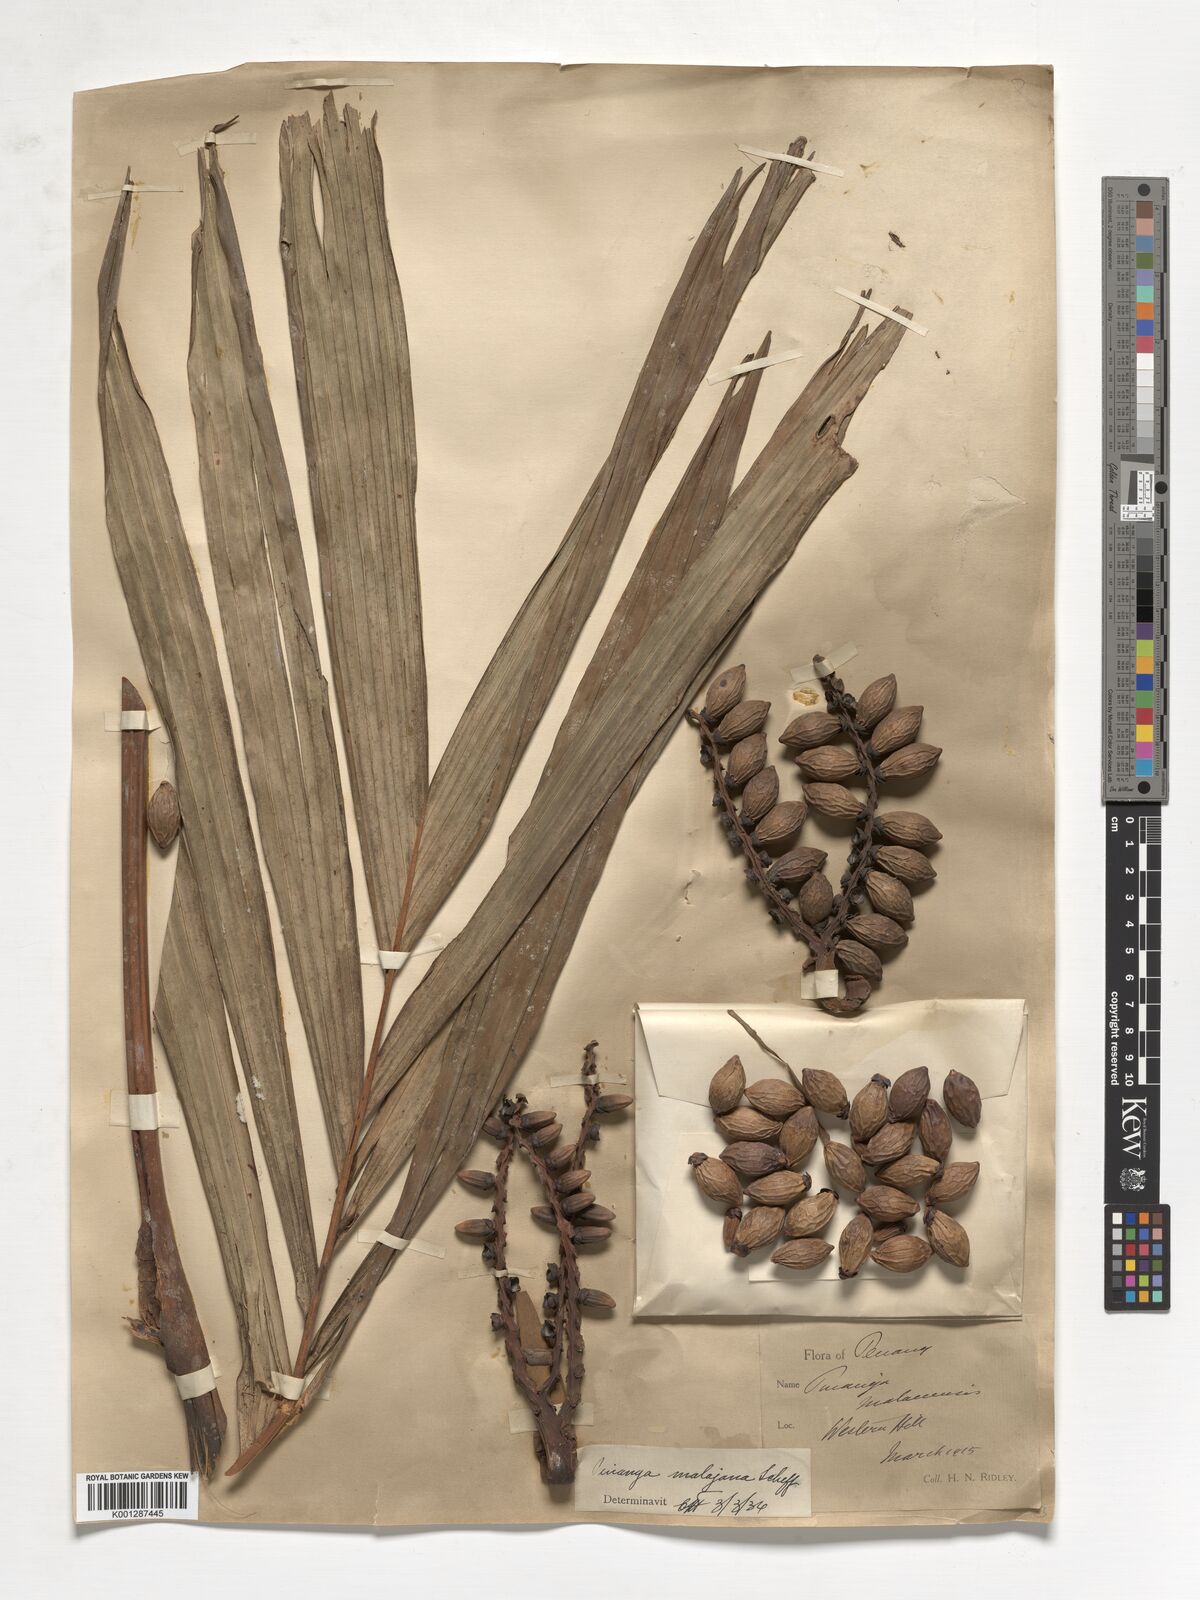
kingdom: Plantae
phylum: Tracheophyta
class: Liliopsida
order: Arecales
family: Arecaceae
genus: Pinanga
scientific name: Pinanga malaiana
